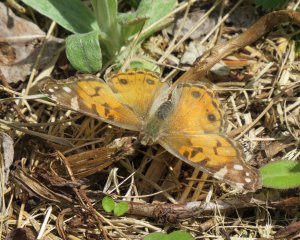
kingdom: Animalia
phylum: Arthropoda
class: Insecta
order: Lepidoptera
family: Nymphalidae
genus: Vanessa
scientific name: Vanessa virginiensis
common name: American Lady
